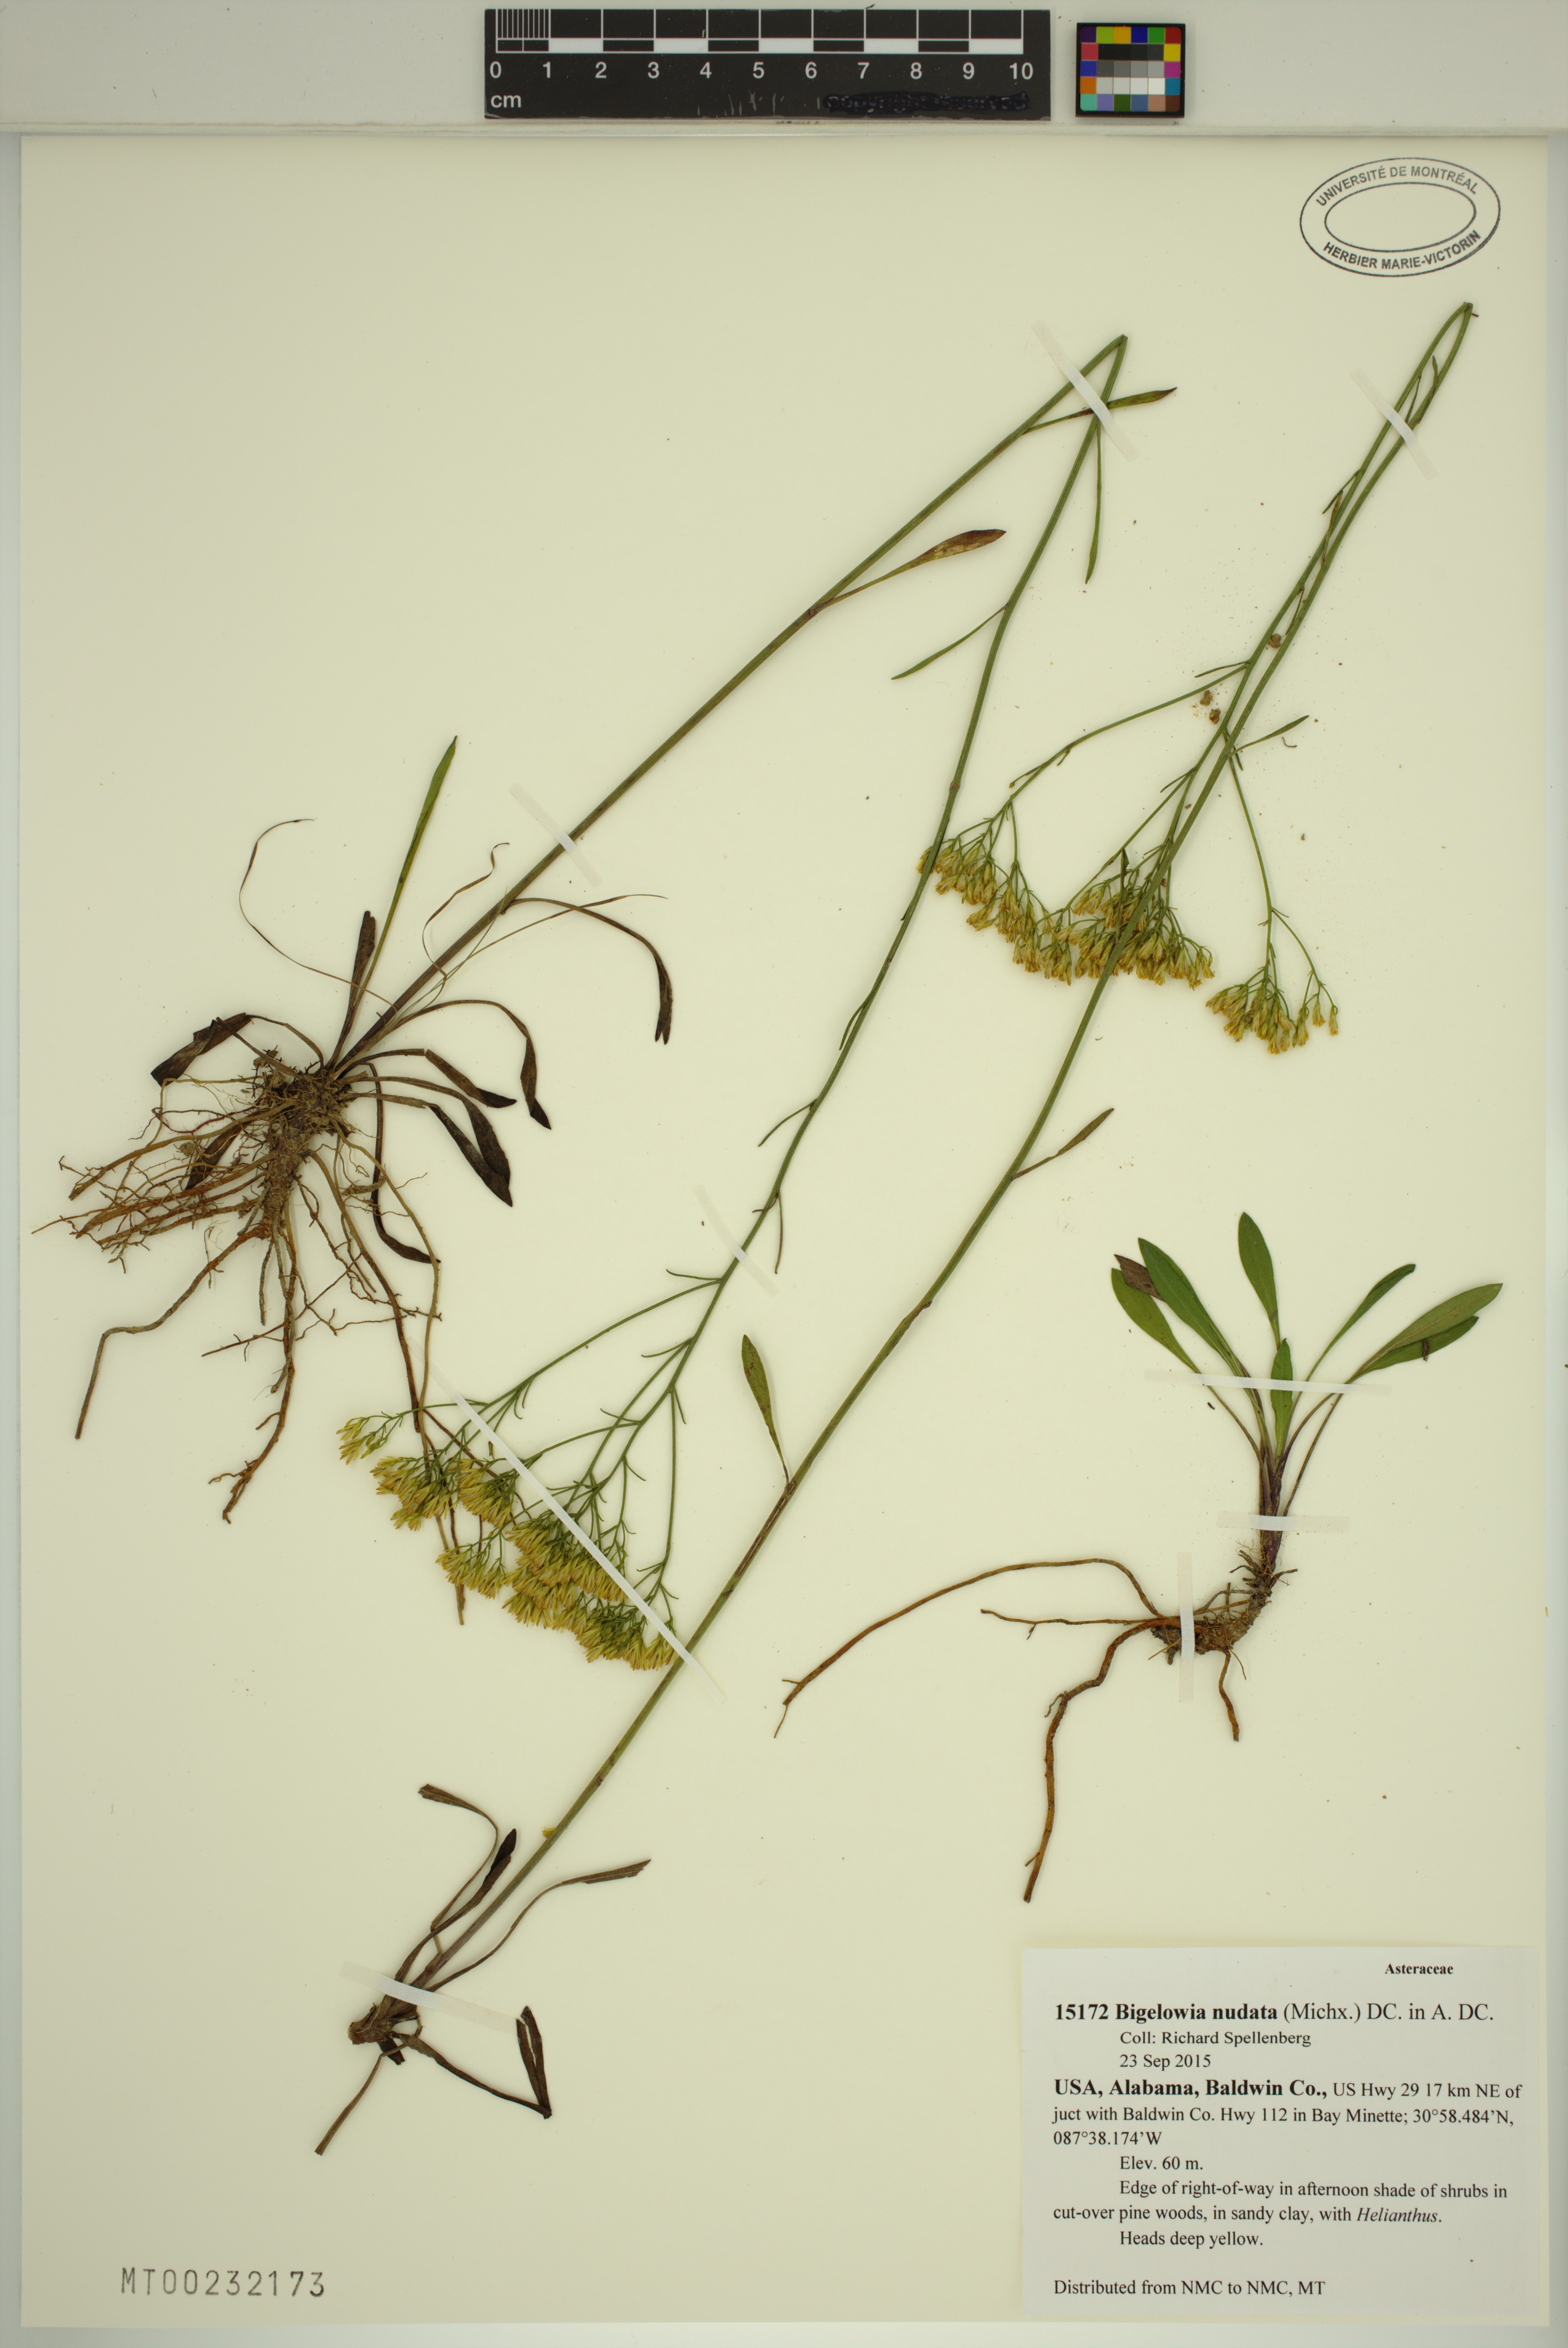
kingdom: Plantae
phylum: Tracheophyta
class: Magnoliopsida
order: Asterales
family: Asteraceae
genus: Bigelowia
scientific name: Bigelowia nudata
